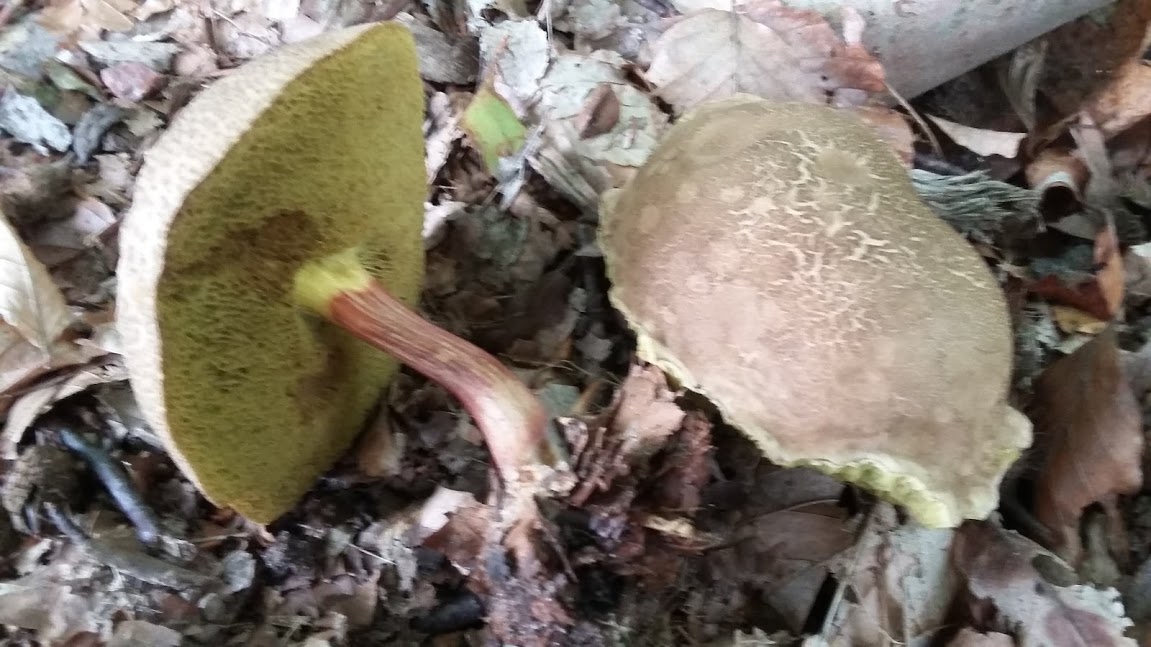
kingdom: Fungi
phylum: Basidiomycota
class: Agaricomycetes
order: Boletales
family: Boletaceae
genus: Xerocomellus
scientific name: Xerocomellus chrysenteron
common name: rødsprukken rørhat
